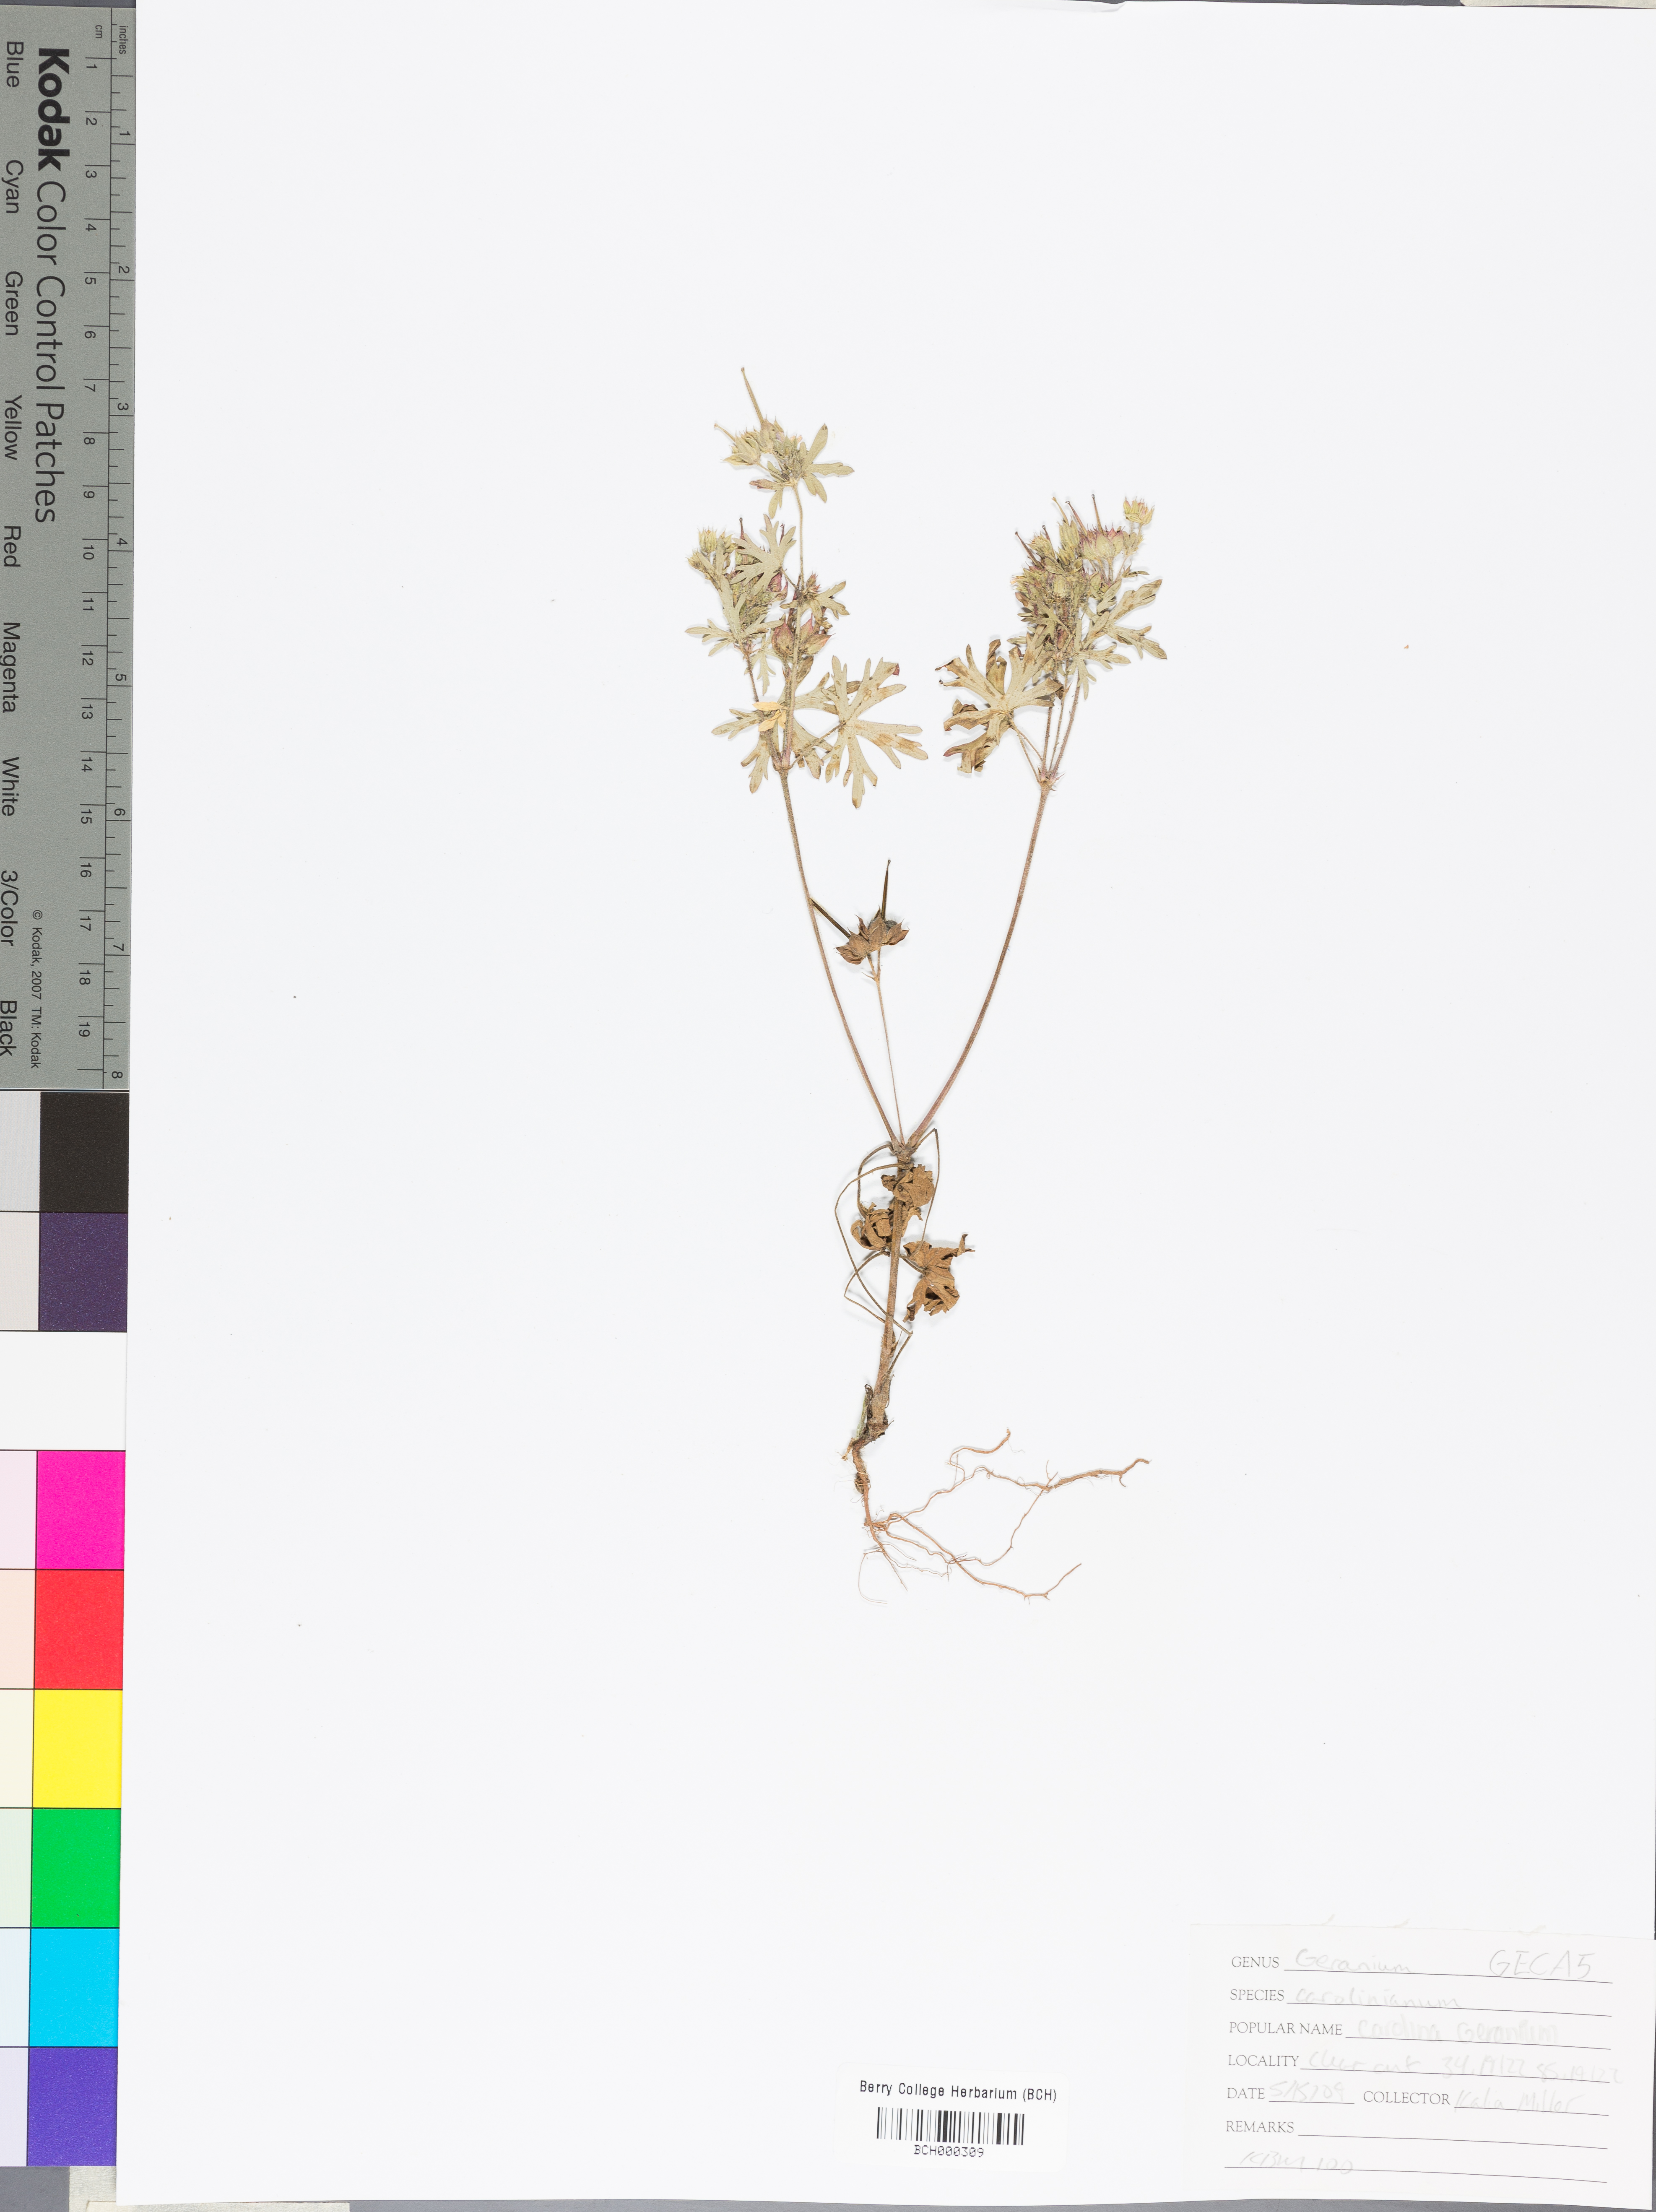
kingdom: Plantae
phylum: Tracheophyta
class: Magnoliopsida
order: Geraniales
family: Geraniaceae
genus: Geranium
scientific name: Geranium carolinianum
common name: Carolina crane's-bill
